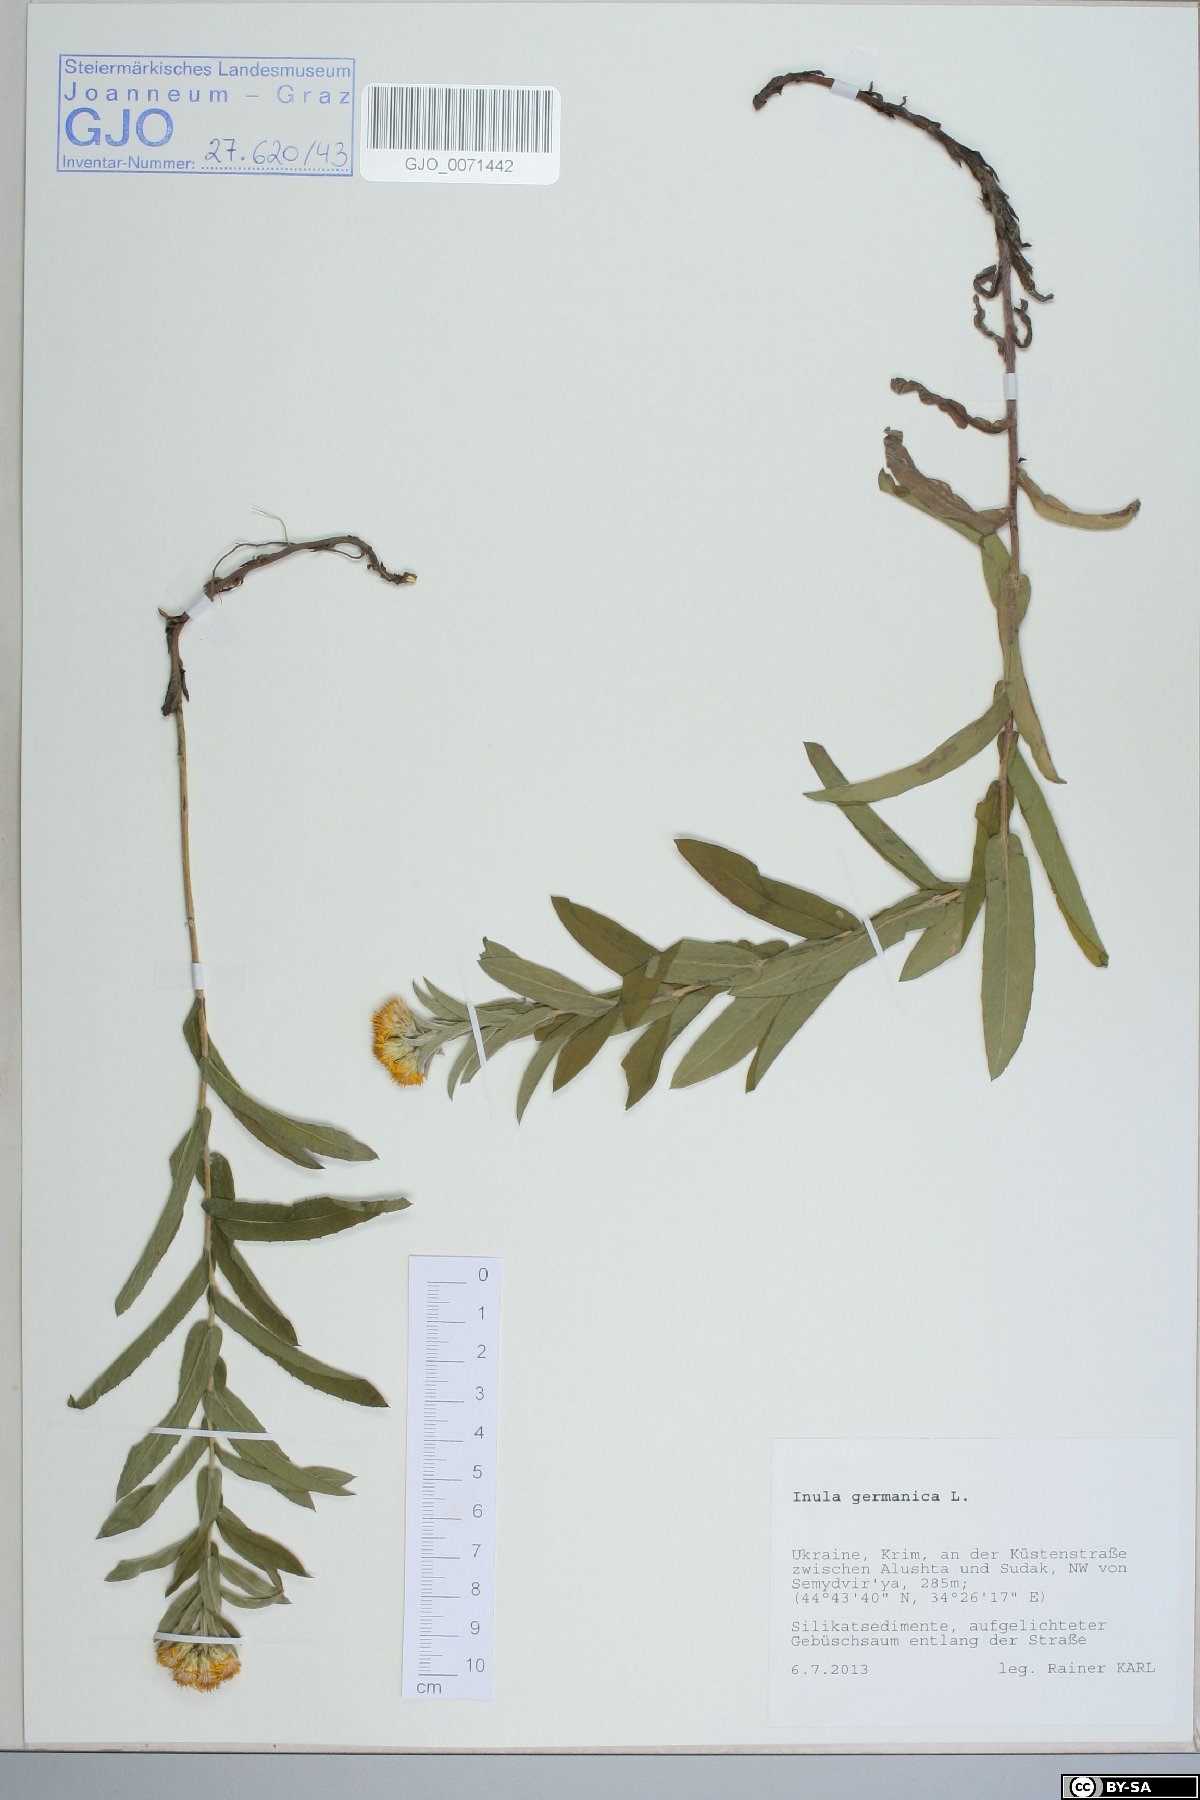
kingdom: Plantae
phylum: Tracheophyta
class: Magnoliopsida
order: Asterales
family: Asteraceae
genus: Pentanema
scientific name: Pentanema germanicum
